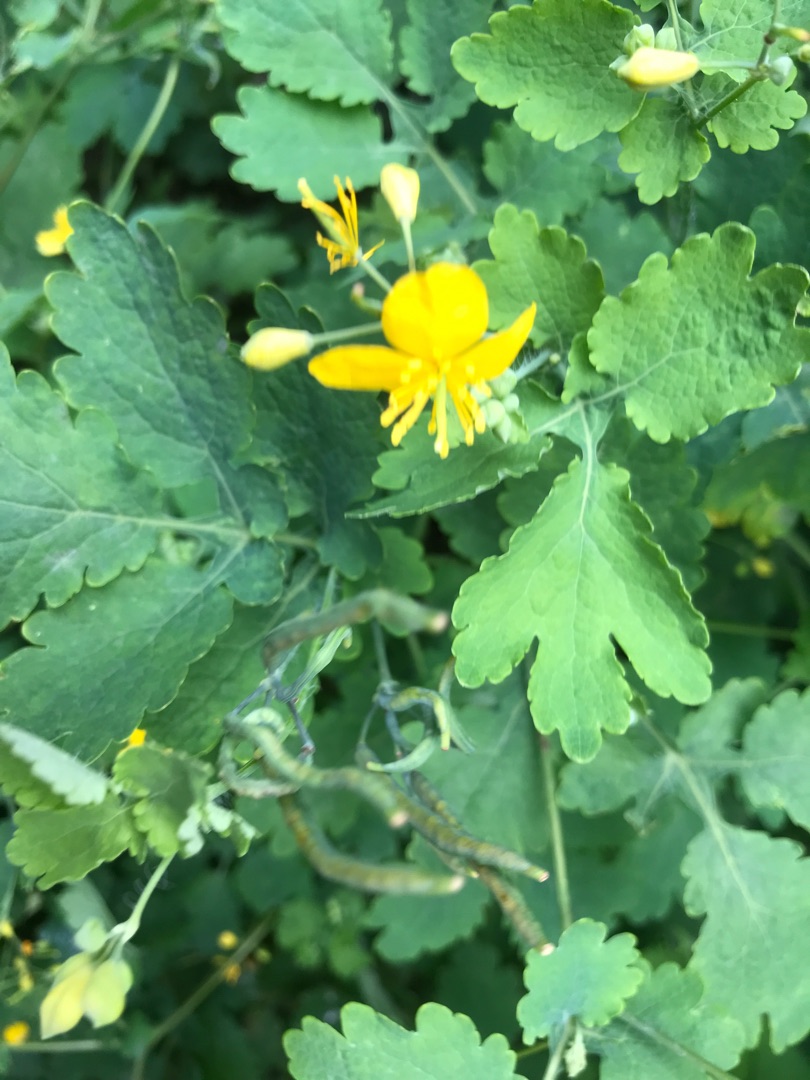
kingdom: Plantae
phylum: Tracheophyta
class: Magnoliopsida
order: Ranunculales
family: Papaveraceae
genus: Chelidonium
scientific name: Chelidonium majus
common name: Svaleurt
